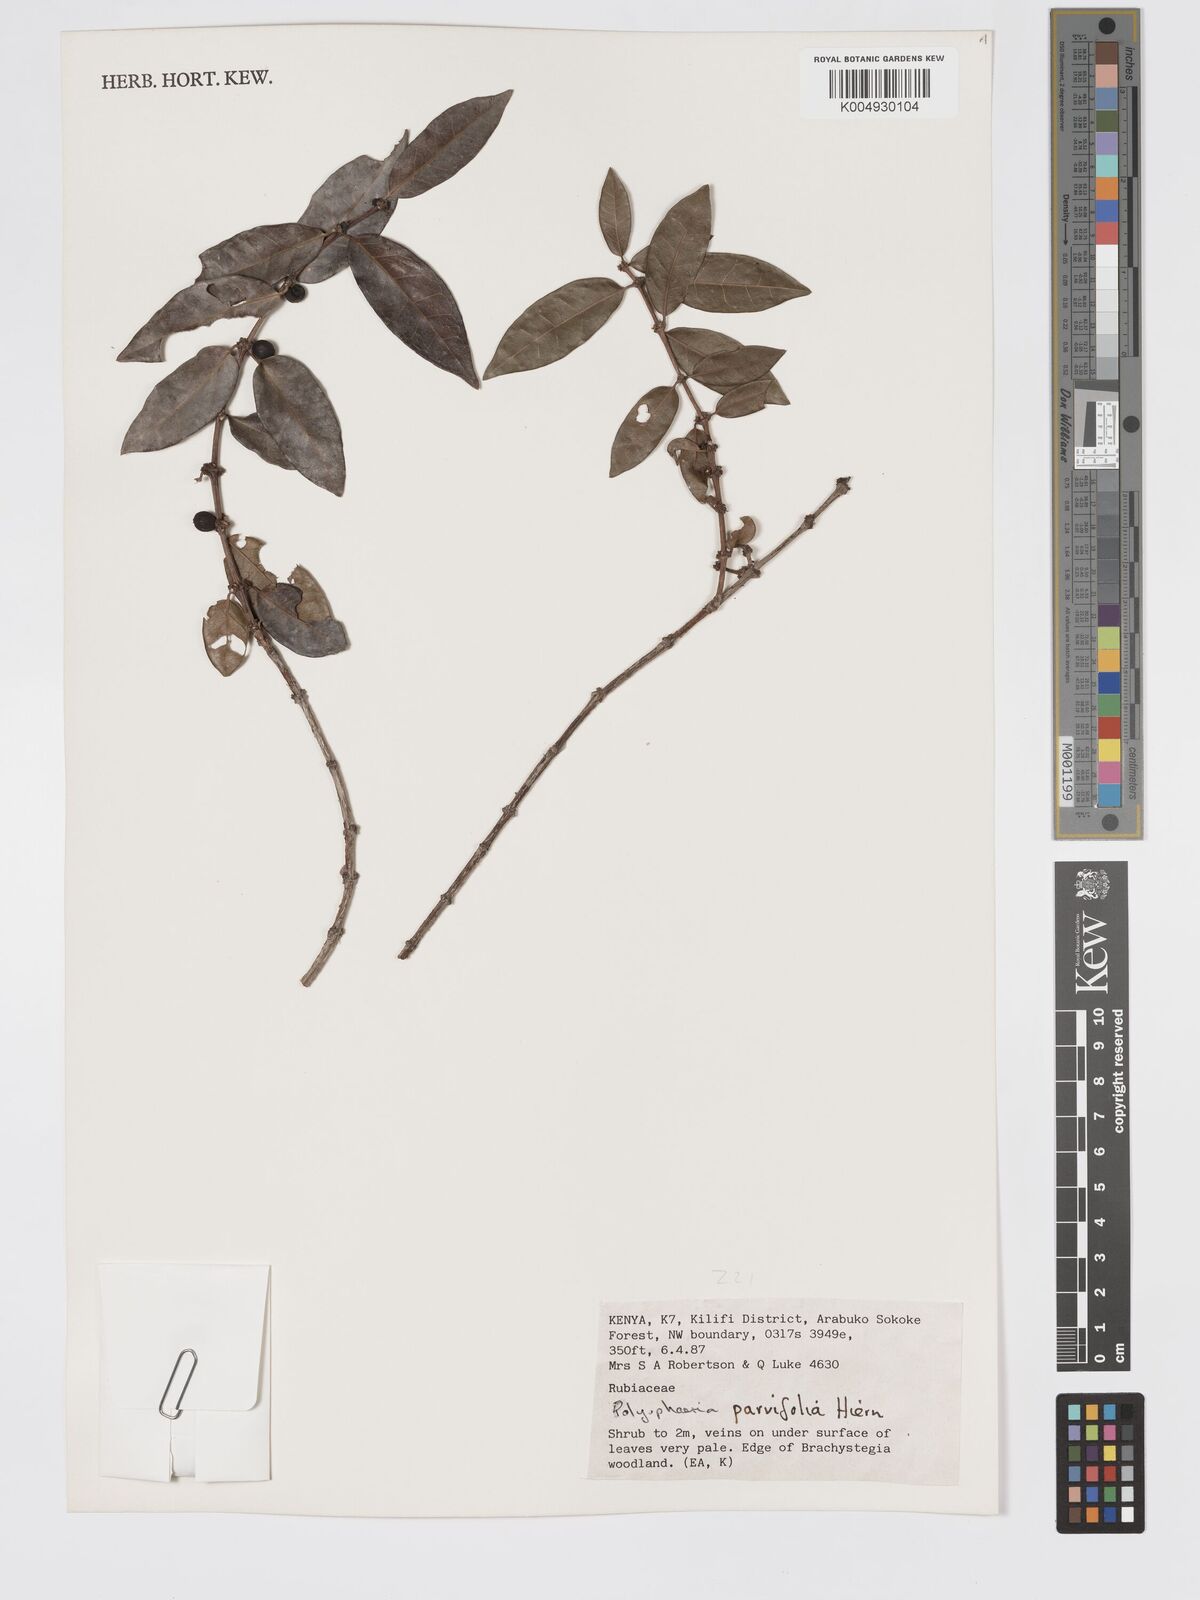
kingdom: Plantae
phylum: Tracheophyta
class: Magnoliopsida
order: Gentianales
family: Rubiaceae
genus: Polysphaeria
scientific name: Polysphaeria parvifolia
